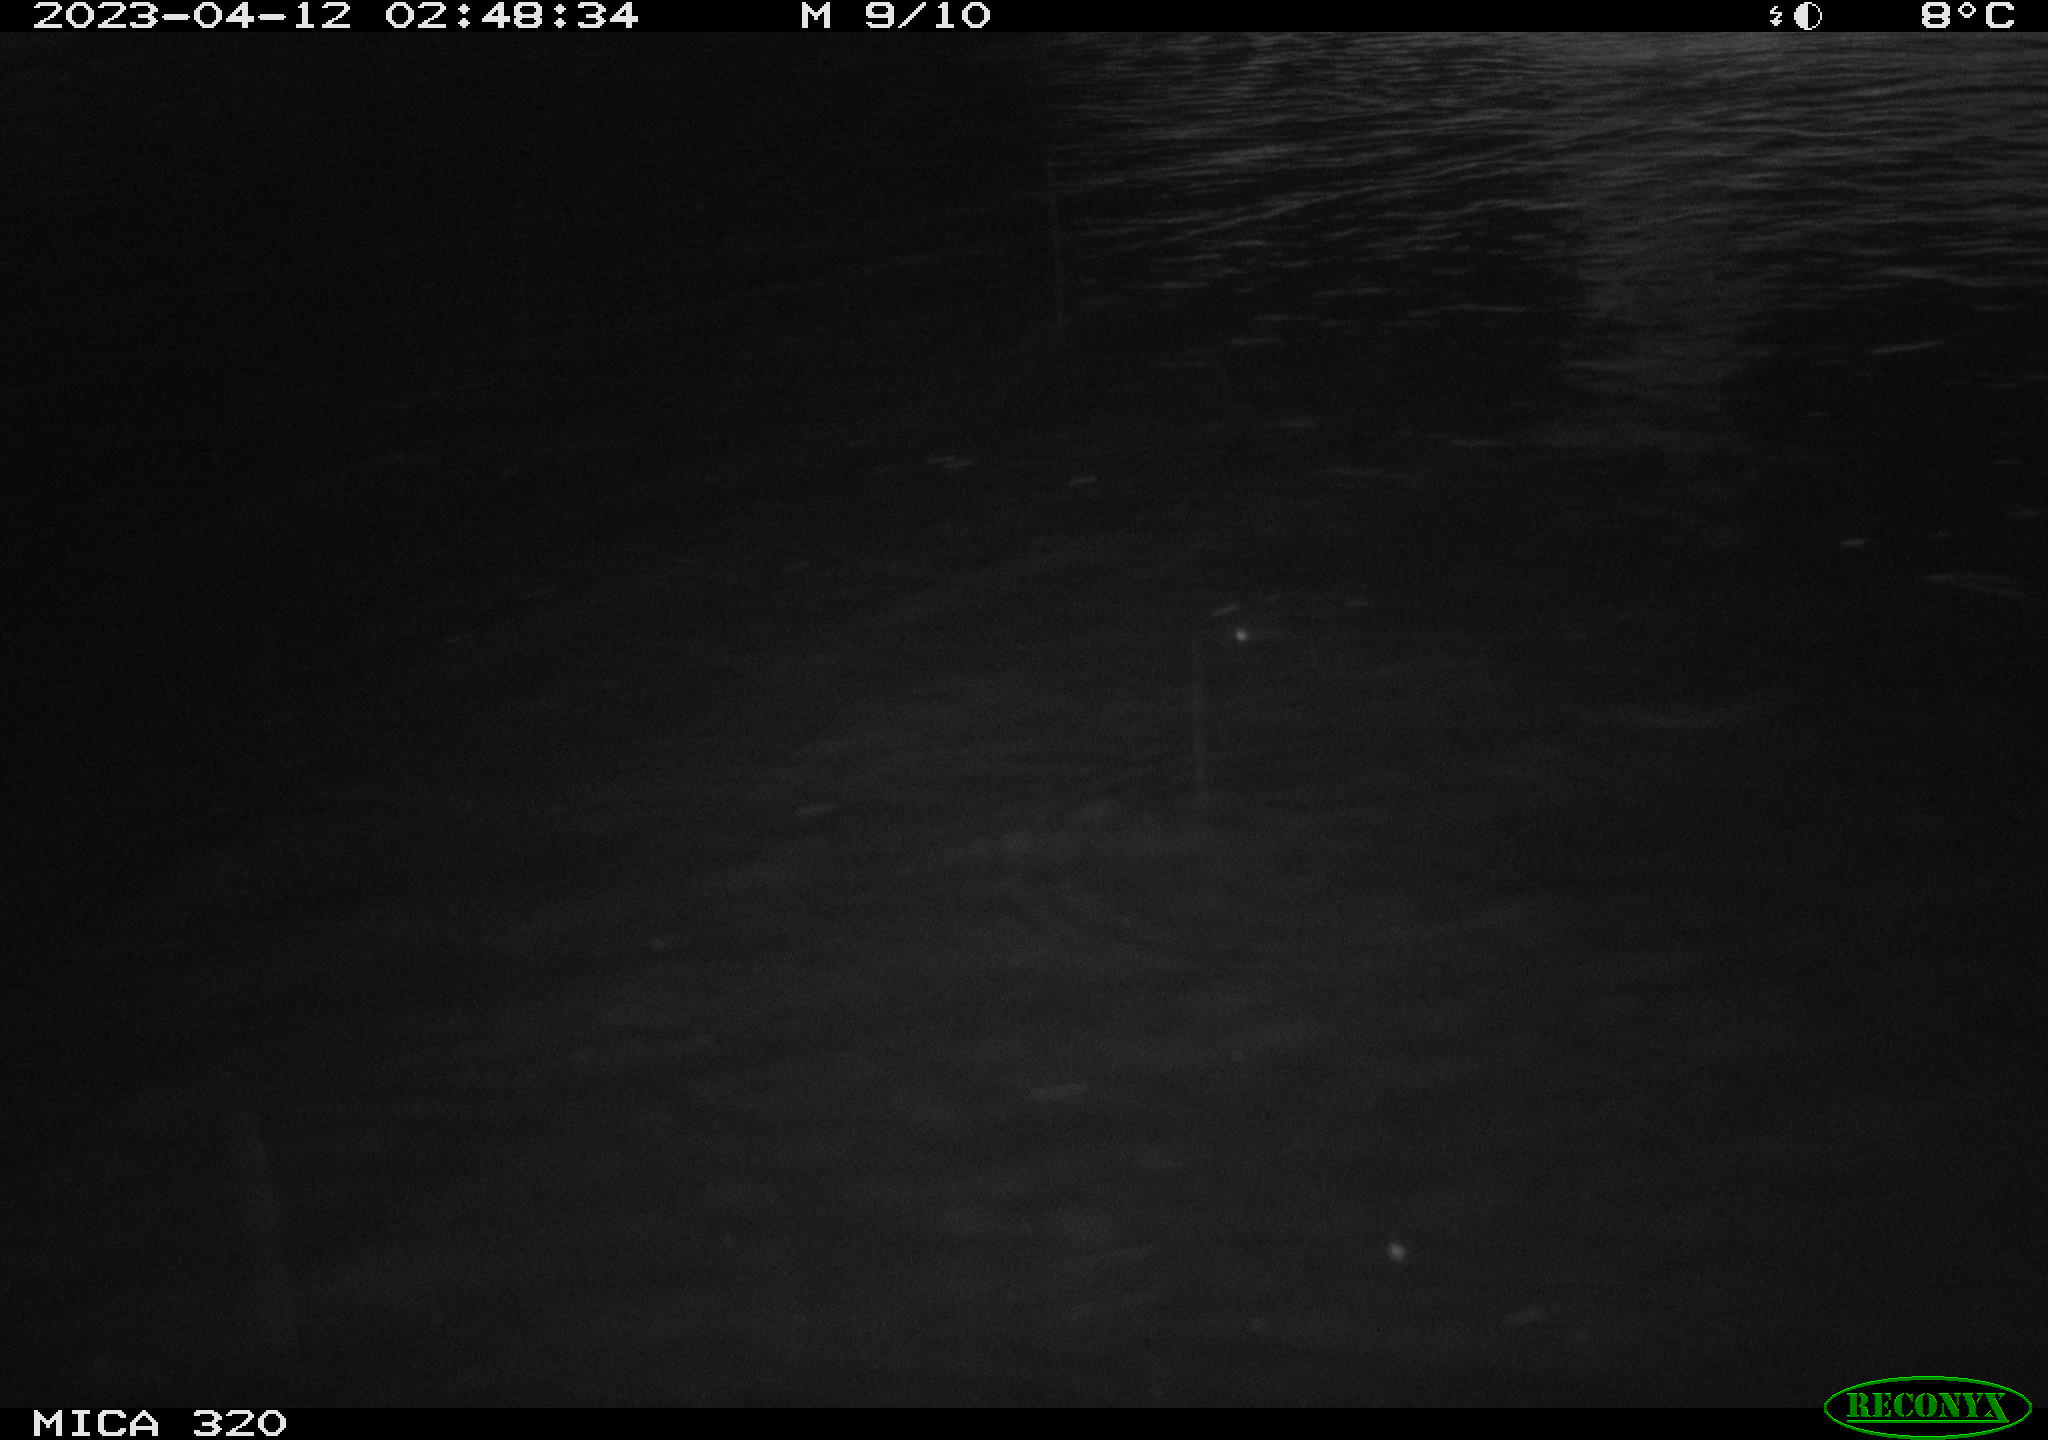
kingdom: Animalia
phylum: Chordata
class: Aves
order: Anseriformes
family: Anatidae
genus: Anas
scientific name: Anas
